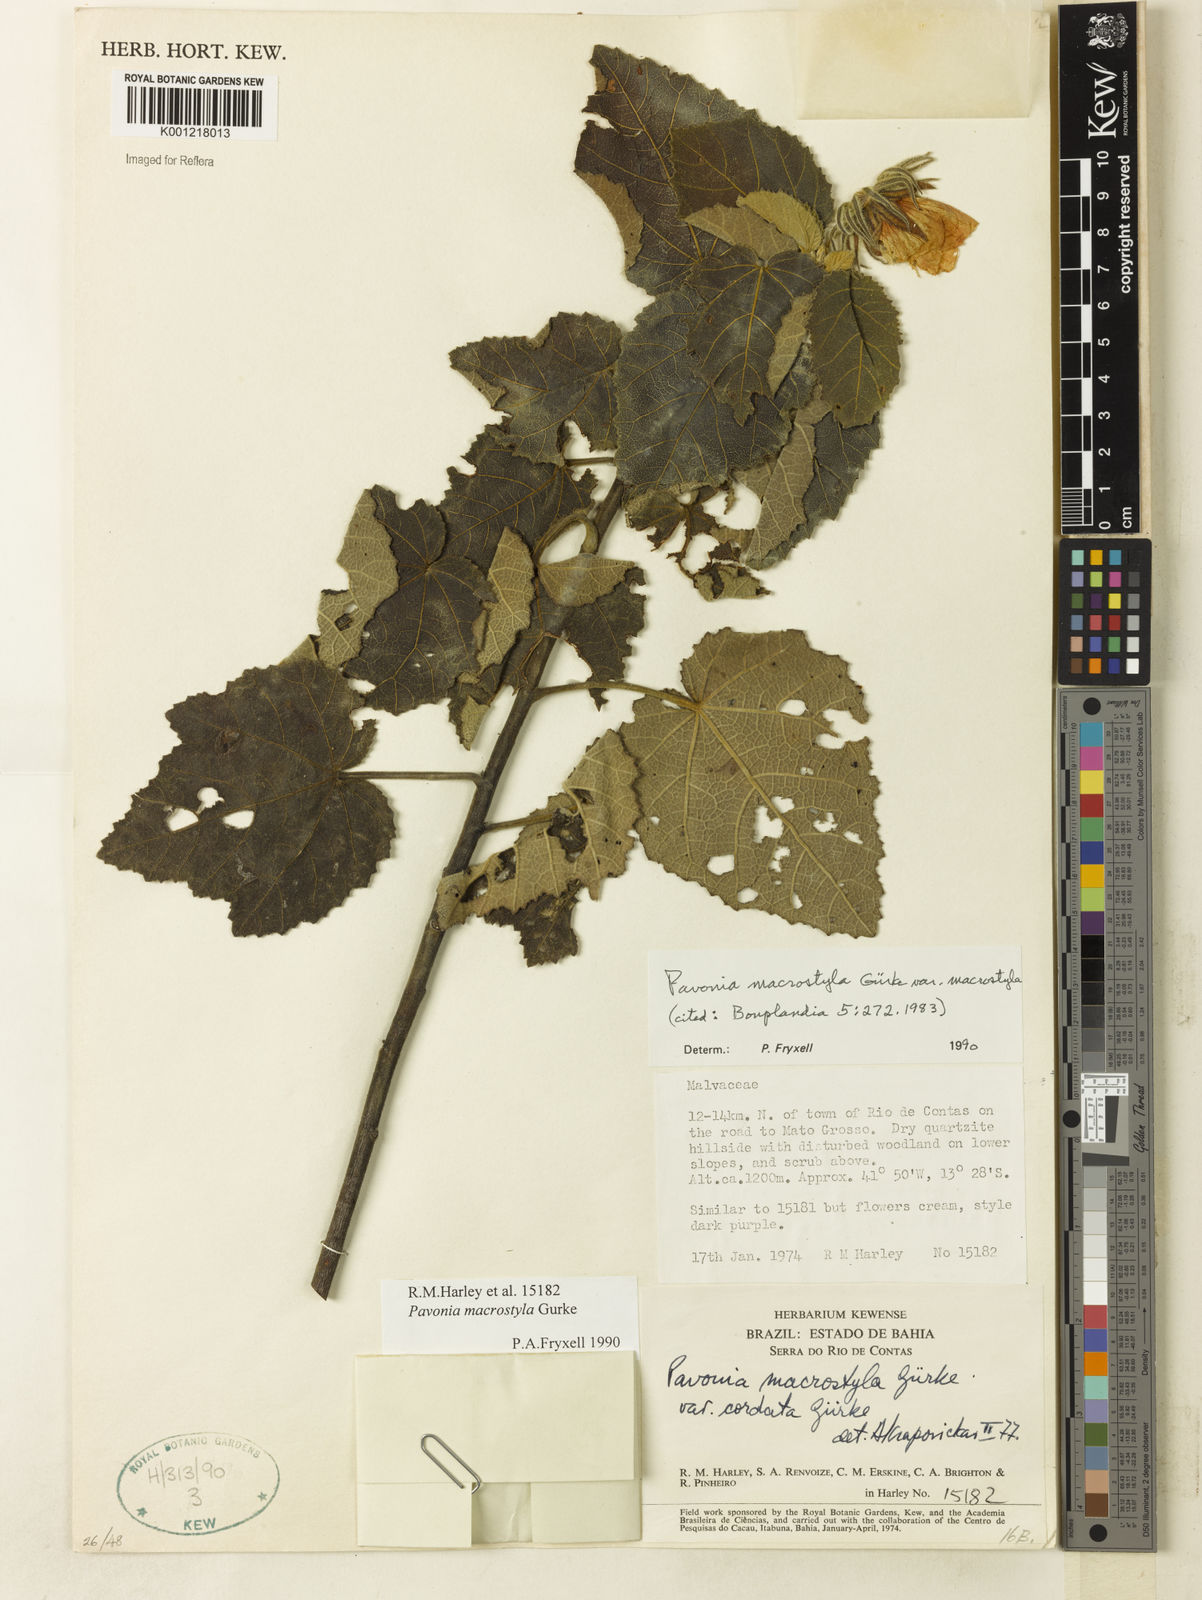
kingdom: Plantae
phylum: Tracheophyta
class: Magnoliopsida
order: Malvales
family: Malvaceae
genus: Pavonia
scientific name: Pavonia
